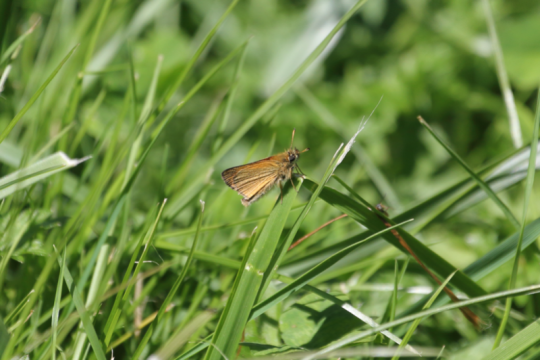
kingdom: Animalia
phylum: Arthropoda
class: Insecta
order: Lepidoptera
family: Hesperiidae
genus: Thymelicus
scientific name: Thymelicus lineola
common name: European Skipper
